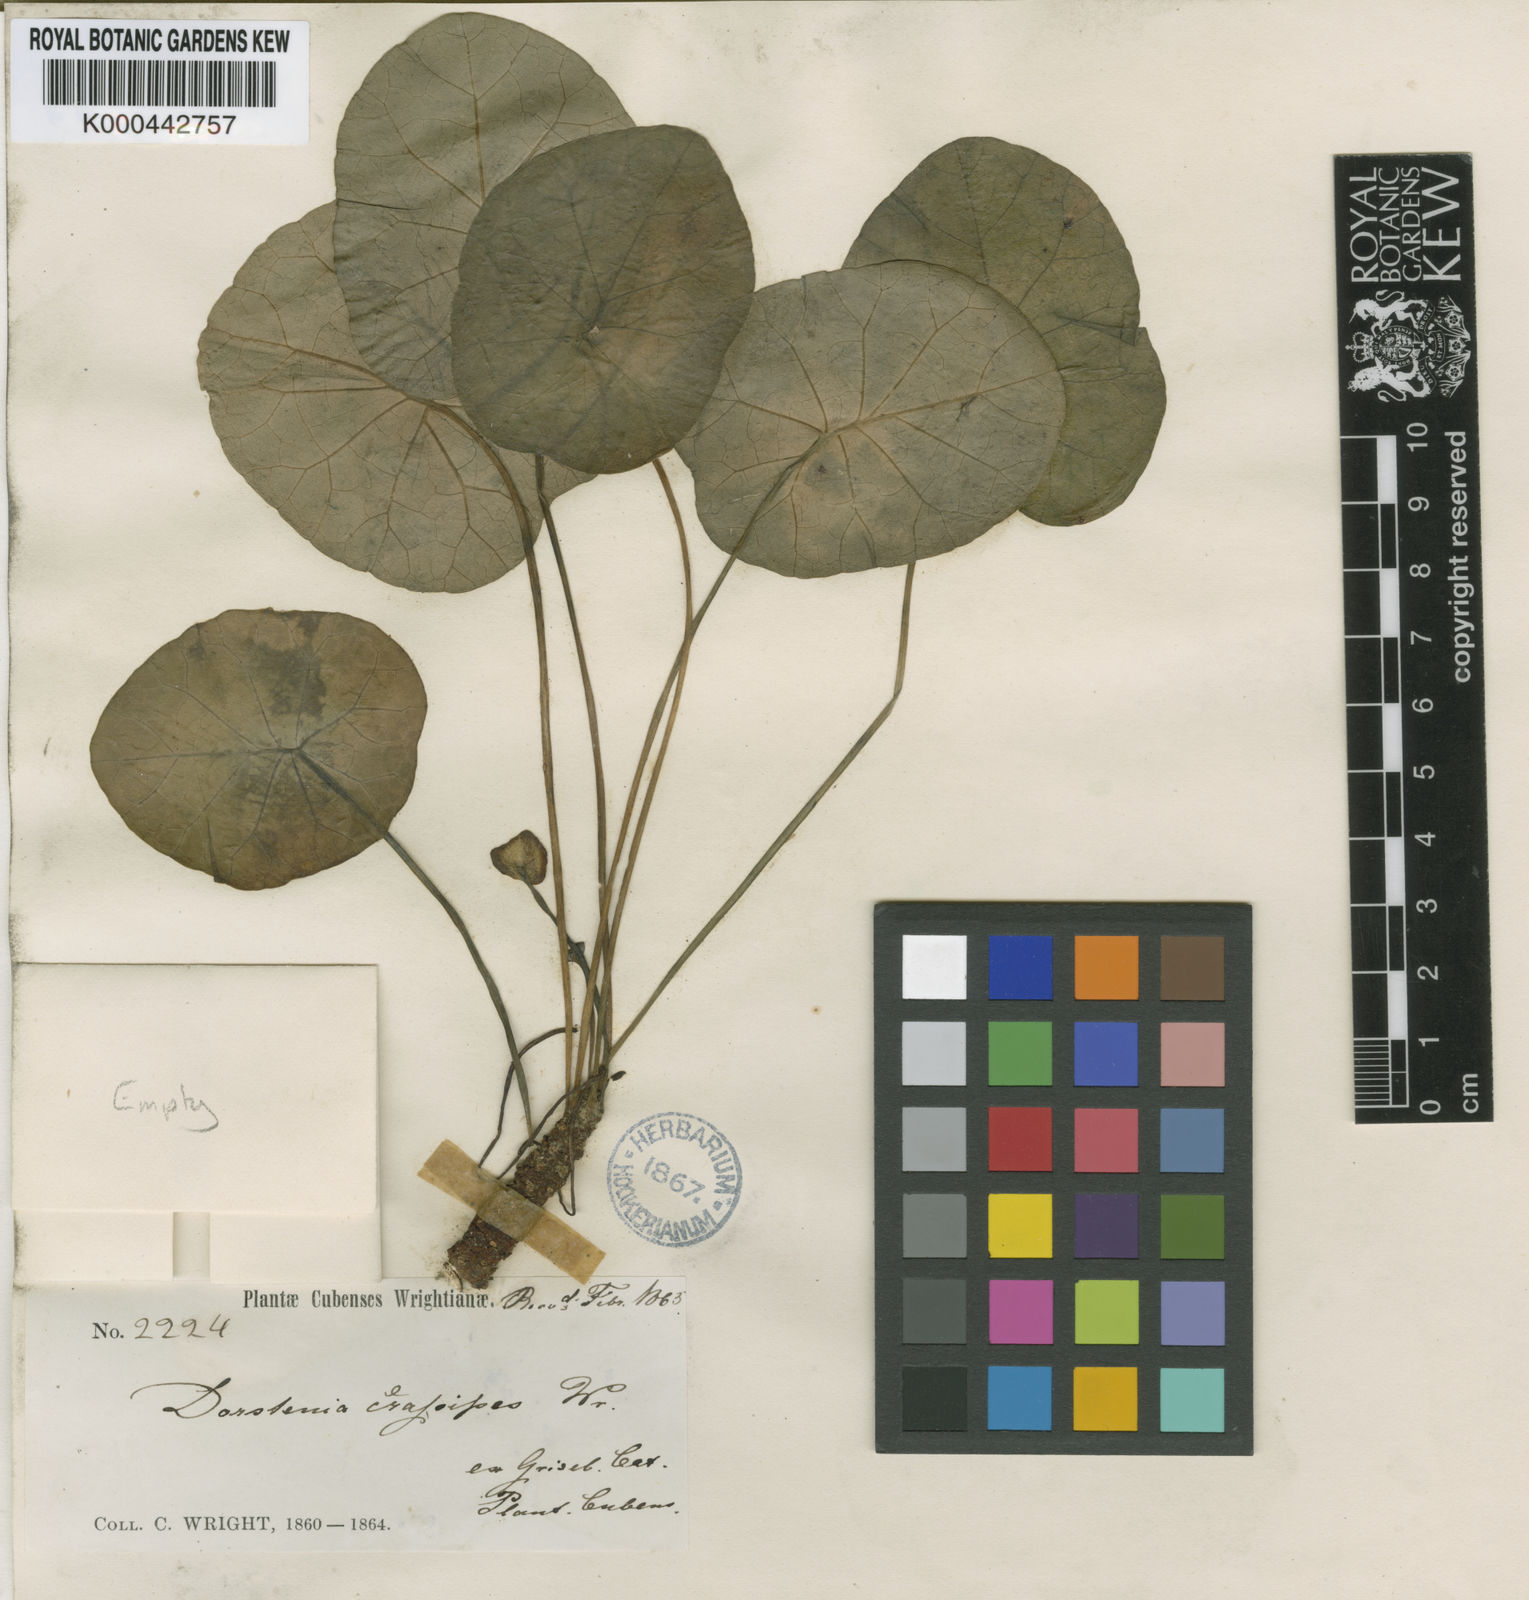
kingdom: Plantae
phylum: Tracheophyta
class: Magnoliopsida
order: Rosales
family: Moraceae
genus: Dorstenia
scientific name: Dorstenia peltata
